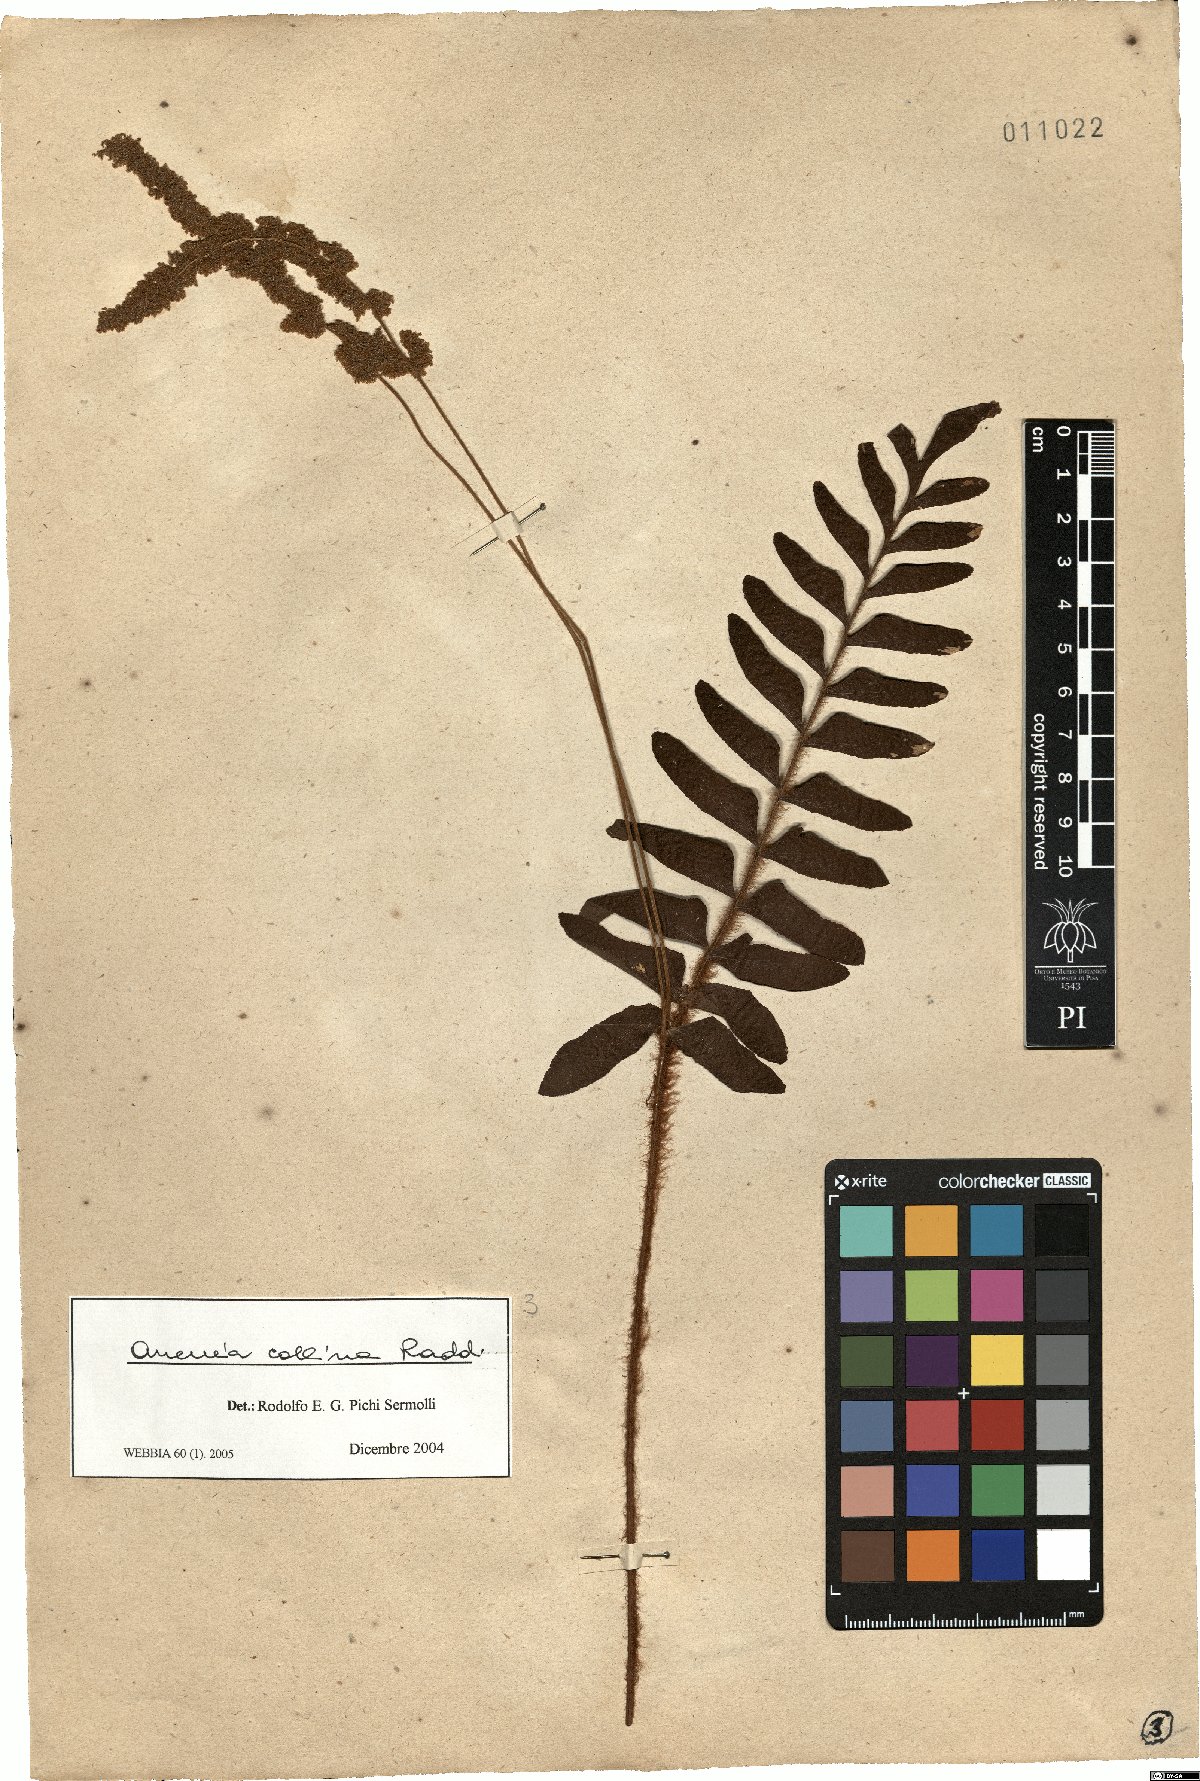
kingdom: Plantae
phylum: Tracheophyta
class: Polypodiopsida
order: Schizaeales
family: Anemiaceae
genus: Anemia
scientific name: Anemia collina
